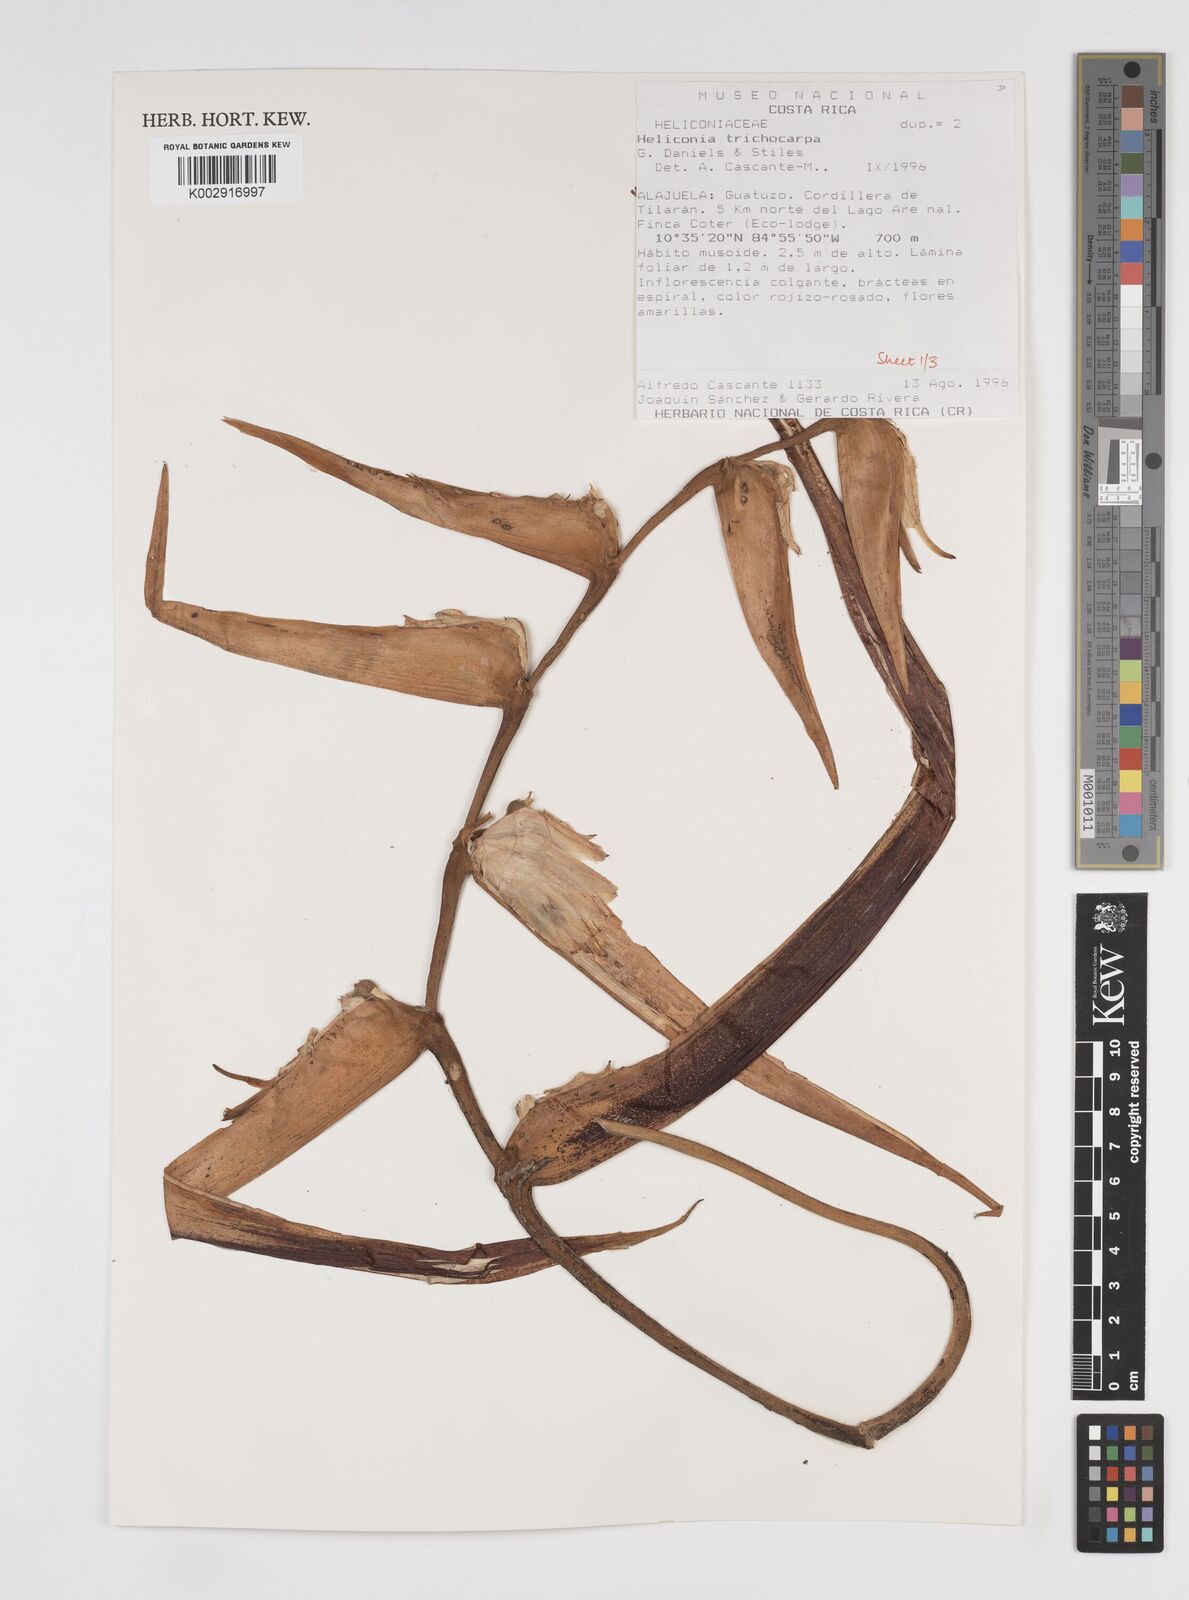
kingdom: Plantae
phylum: Tracheophyta
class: Liliopsida
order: Zingiberales
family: Heliconiaceae
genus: Heliconia
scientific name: Heliconia trichocarpa
